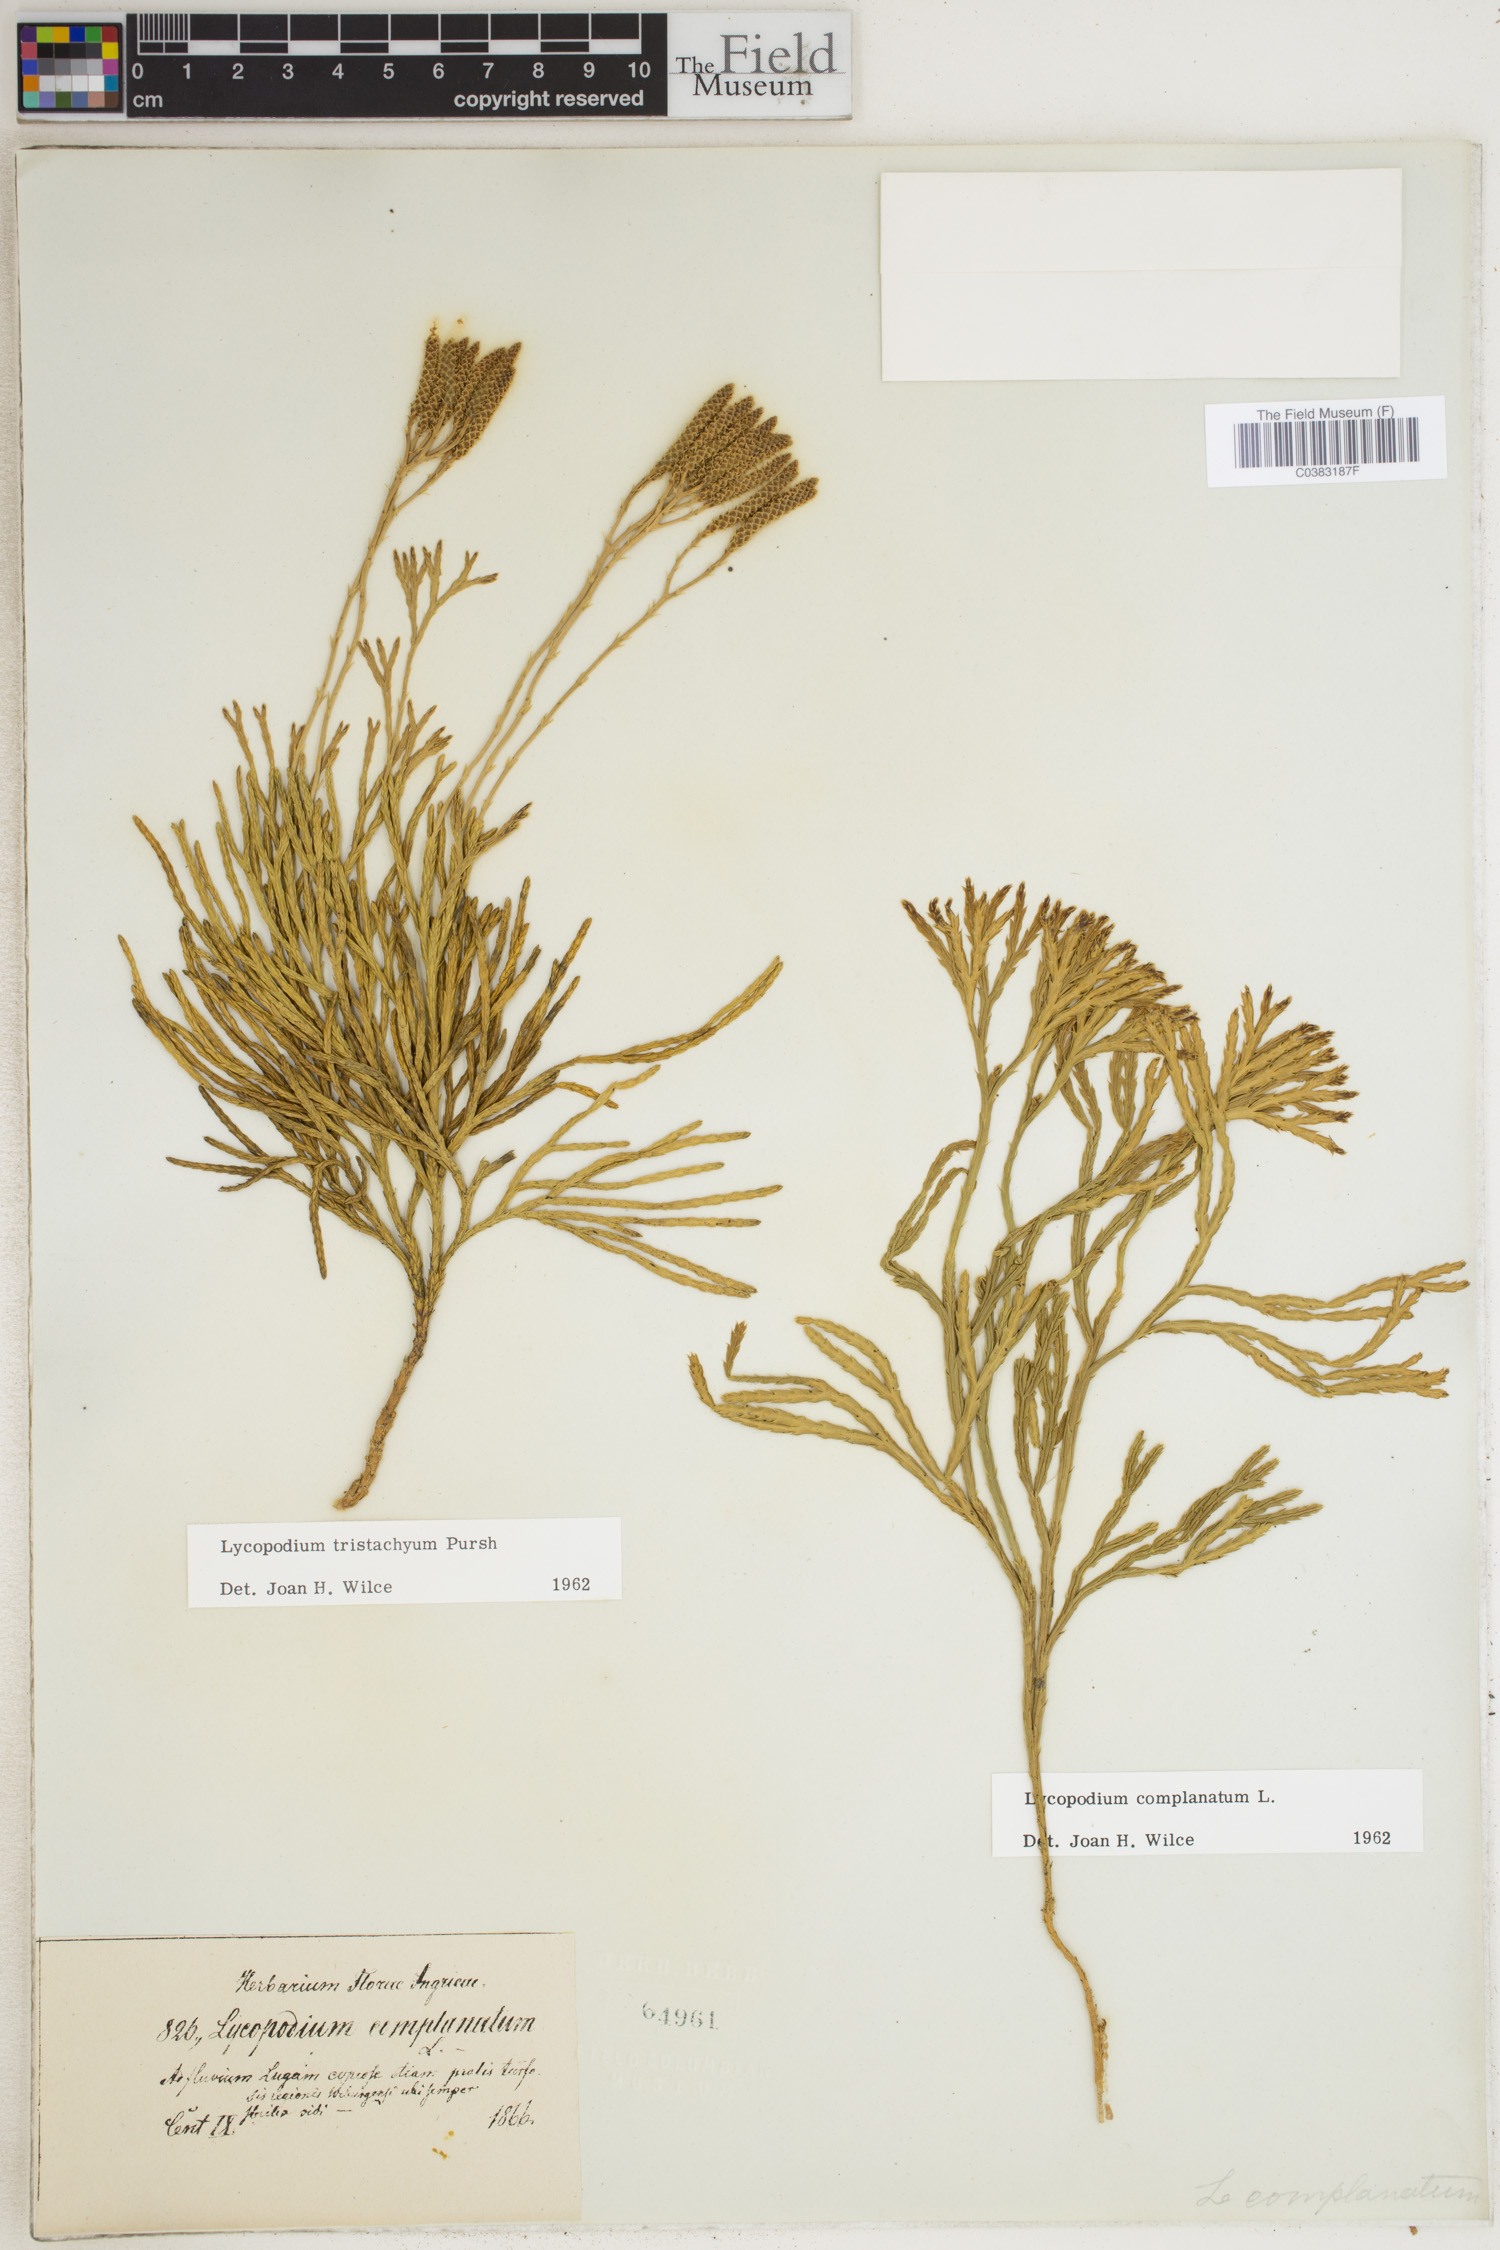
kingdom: Plantae
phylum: Tracheophyta
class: Lycopodiopsida
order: Lycopodiales
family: Lycopodiaceae
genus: Diphasiastrum
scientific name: Diphasiastrum complanatum
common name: Northern running-pine
